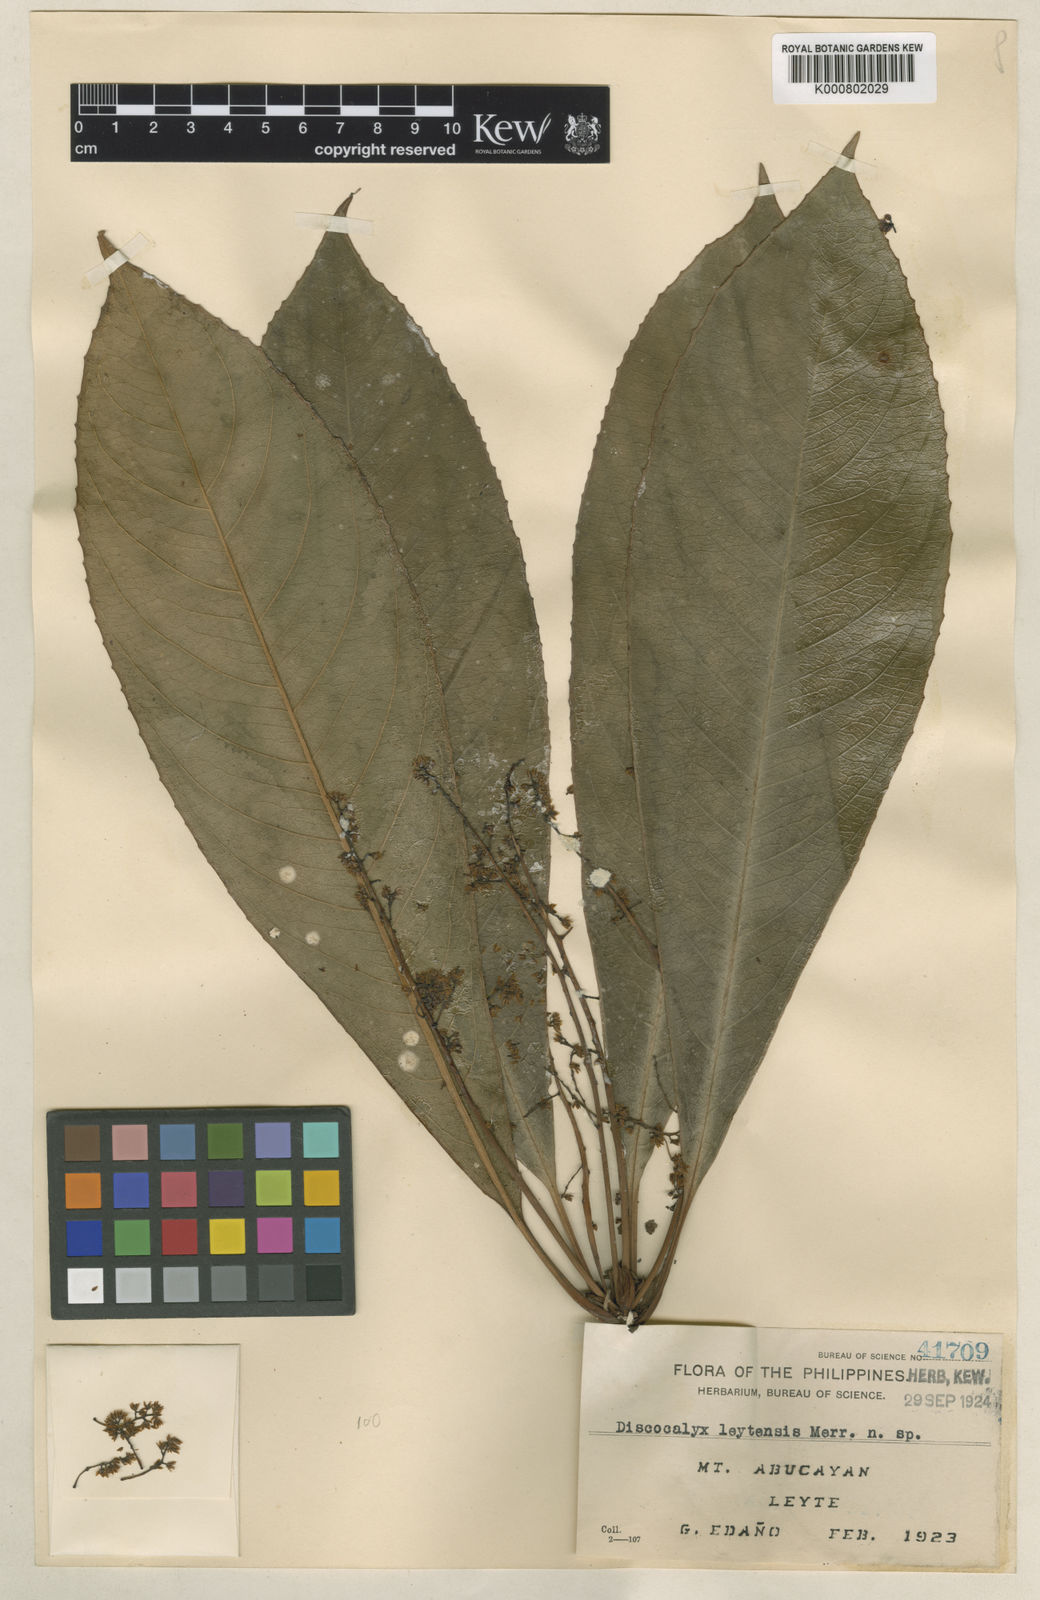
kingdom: Plantae
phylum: Tracheophyta
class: Magnoliopsida
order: Ericales
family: Primulaceae
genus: Discocalyx
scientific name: Discocalyx leytensis
